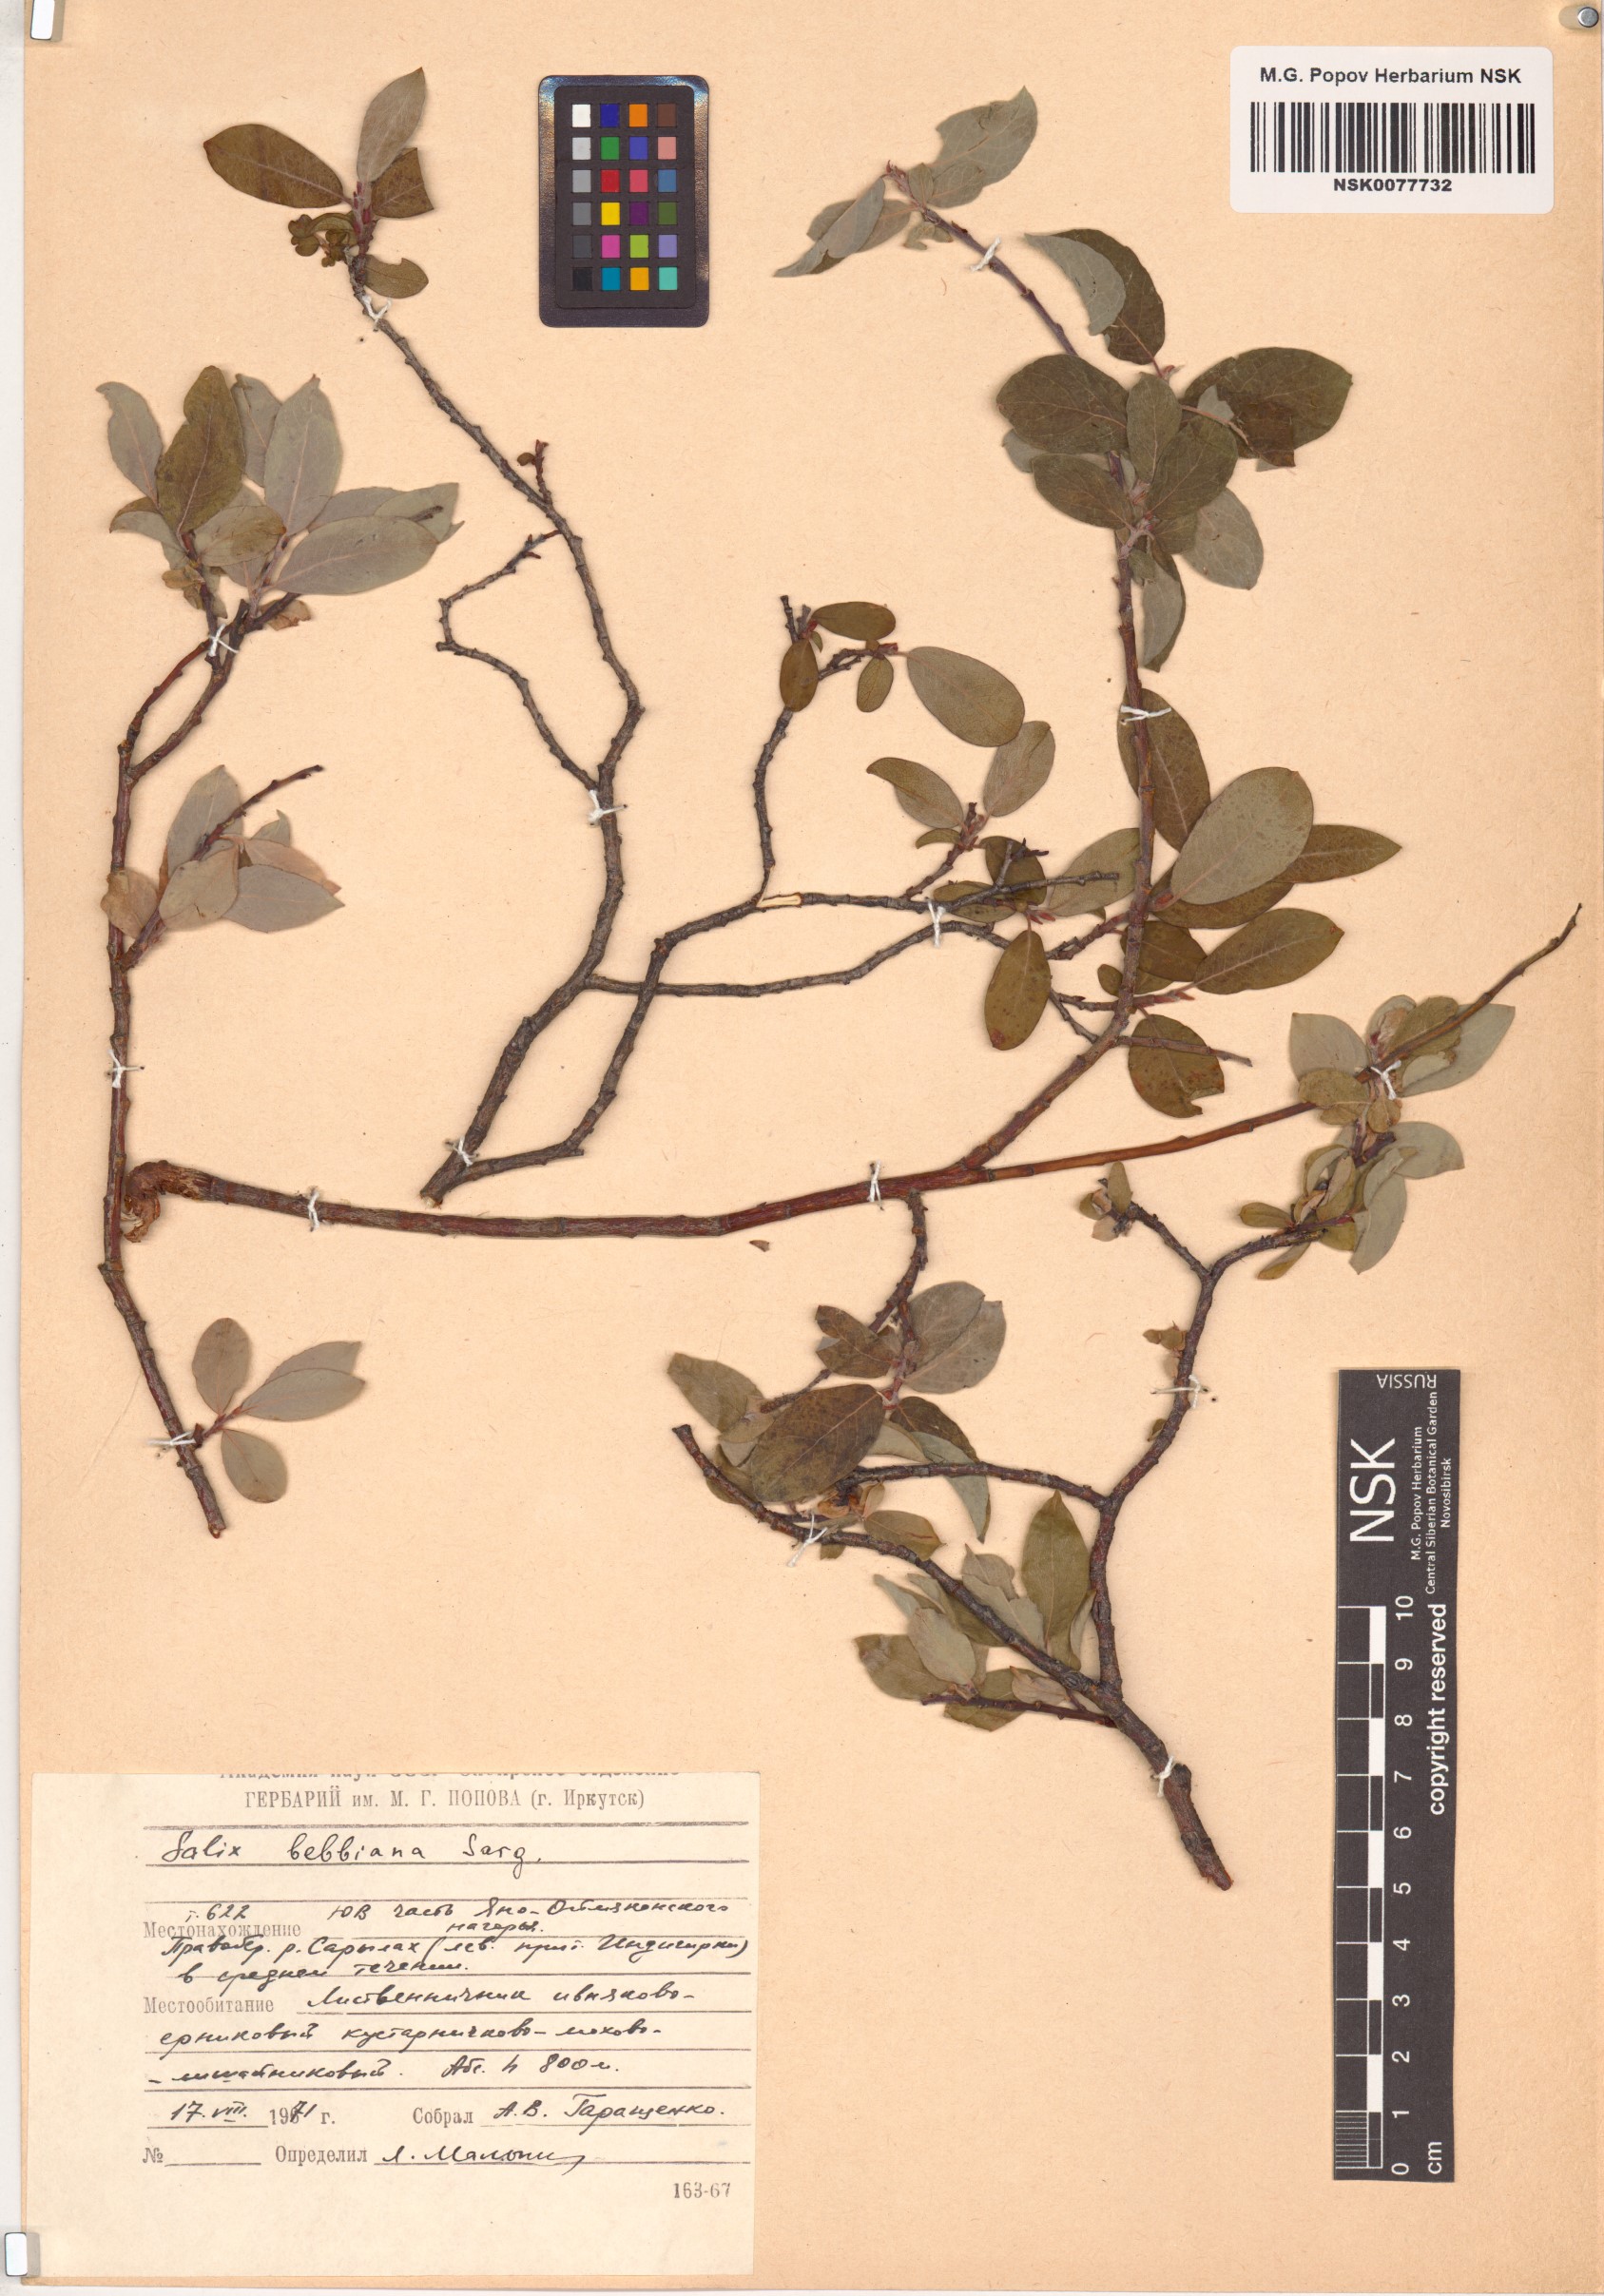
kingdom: Plantae
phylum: Tracheophyta
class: Magnoliopsida
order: Malpighiales
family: Salicaceae
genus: Salix
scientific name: Salix bebbiana
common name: Bebb's willow
